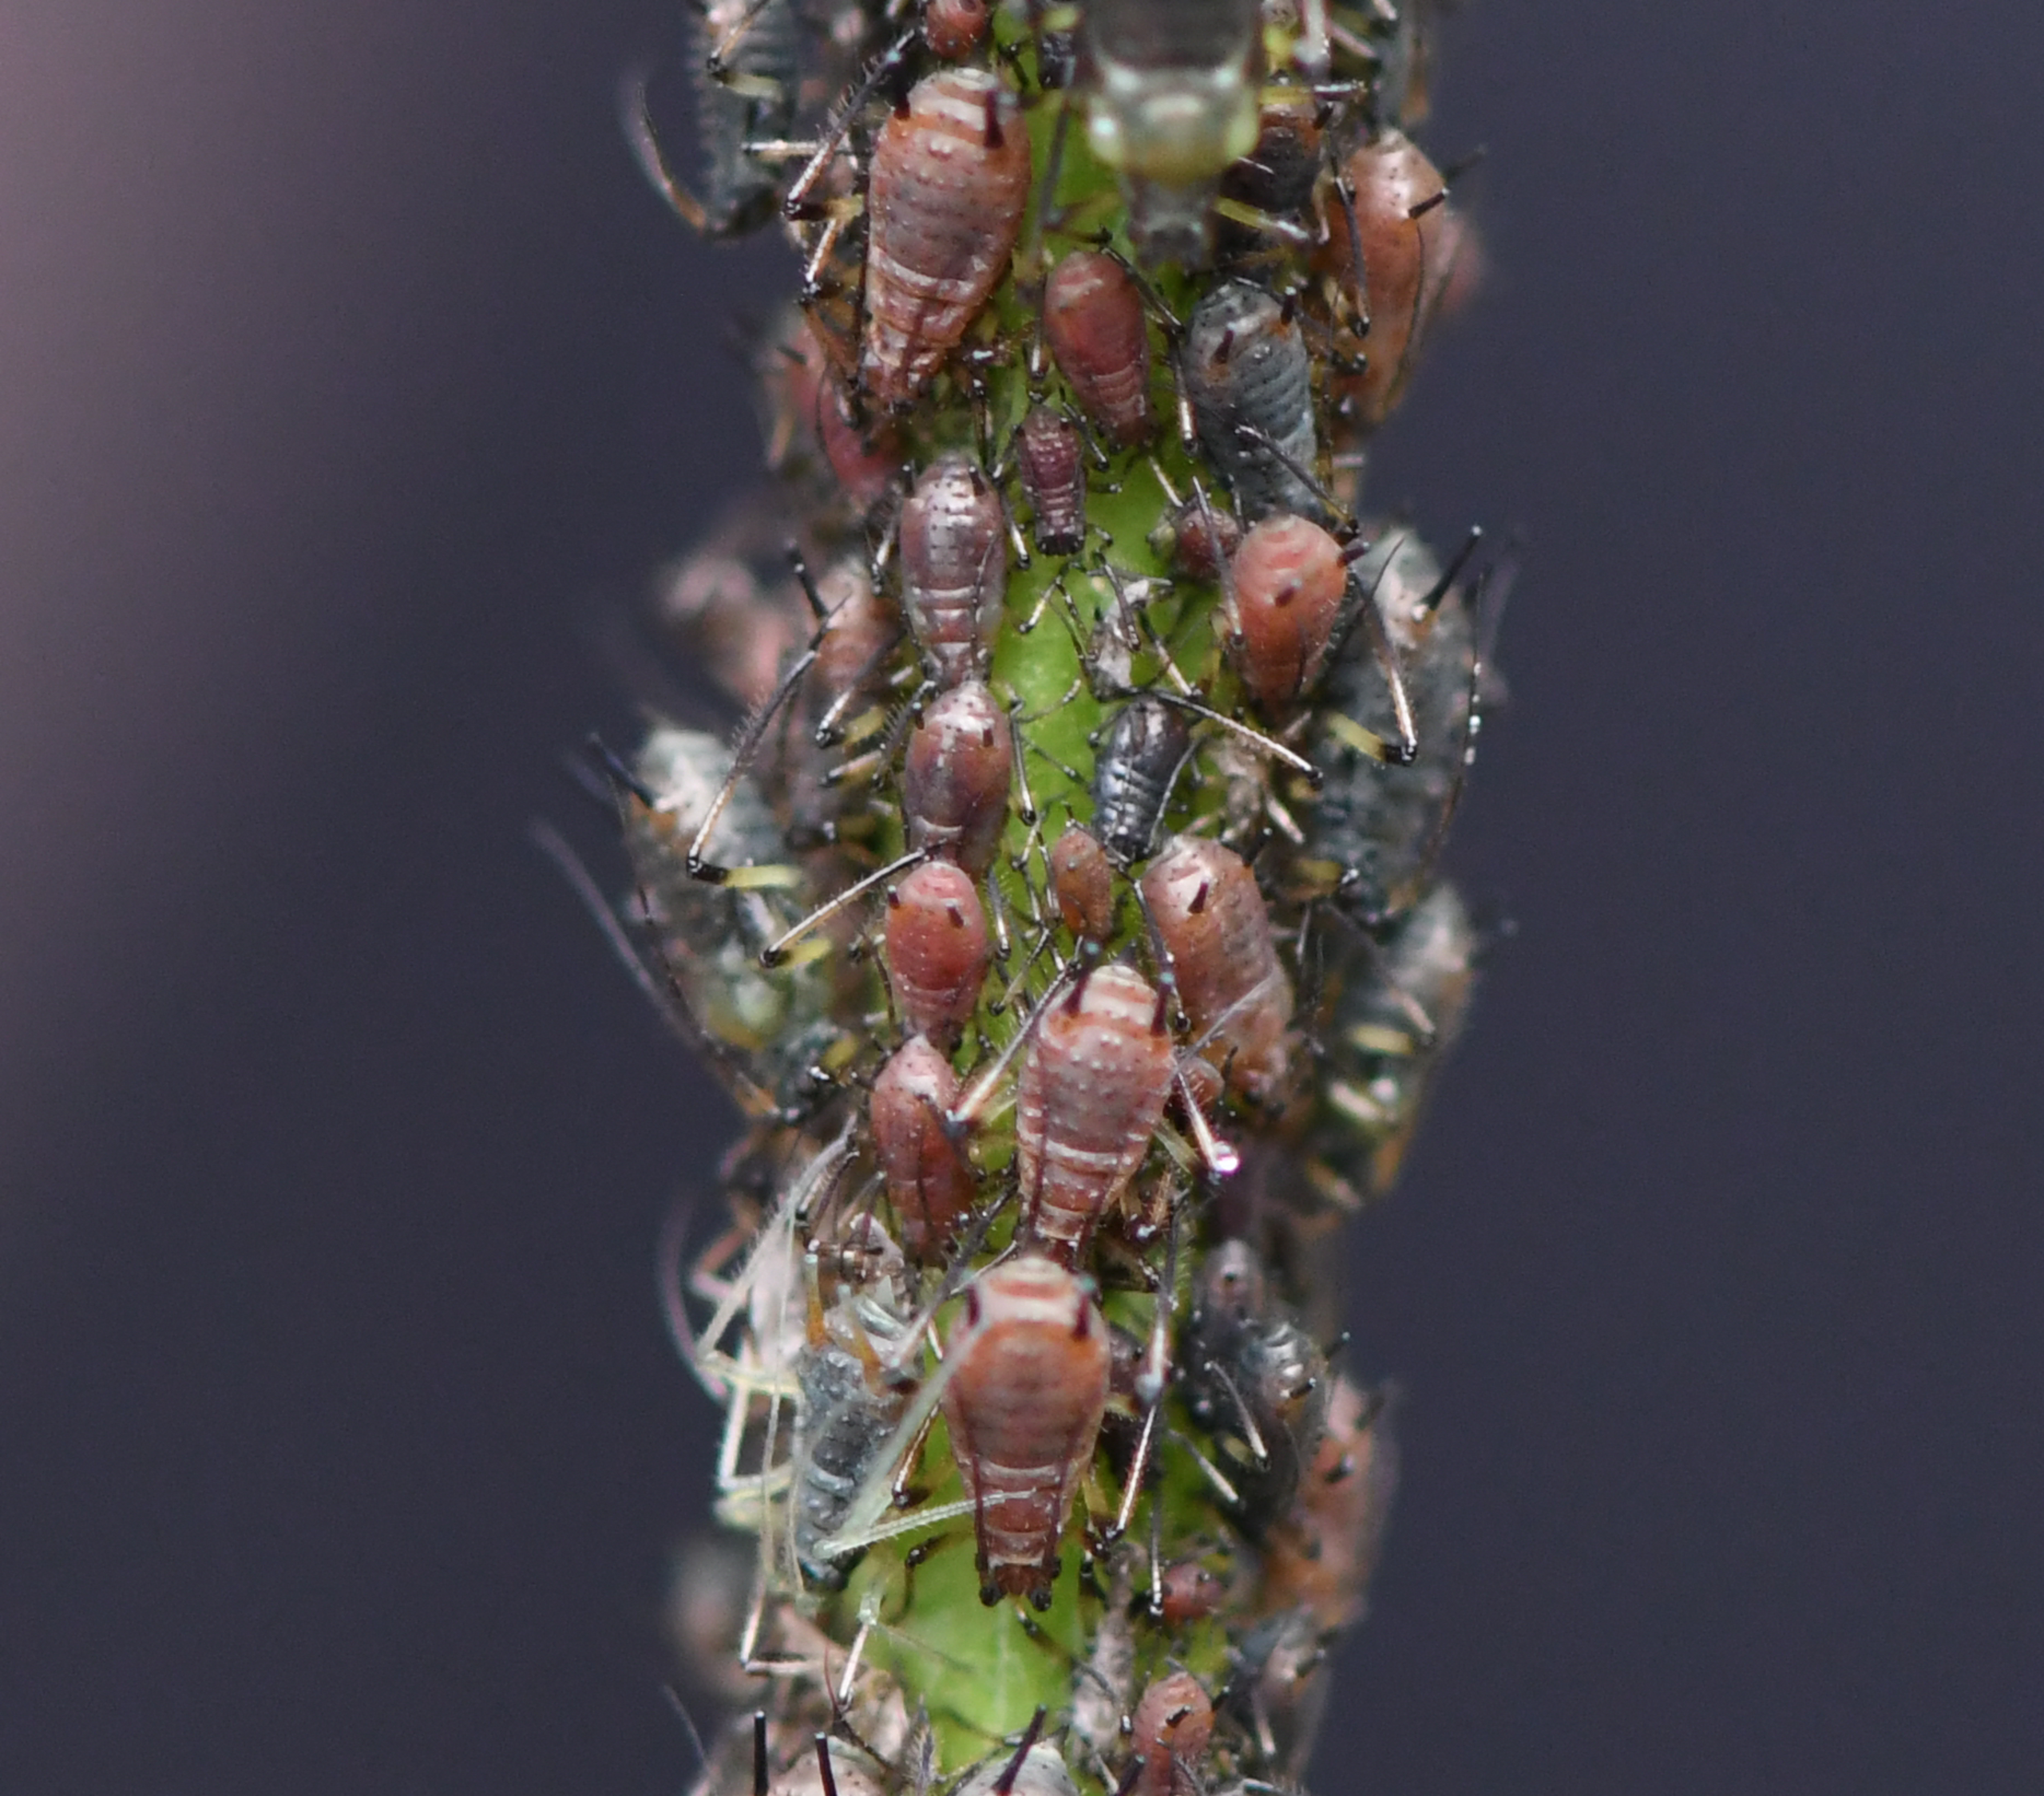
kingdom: Animalia
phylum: Arthropoda
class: Insecta
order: Hemiptera
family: Aphididae
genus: Uroleucon
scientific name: Uroleucon hypochoeridis
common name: Brun kongepenbladlus
